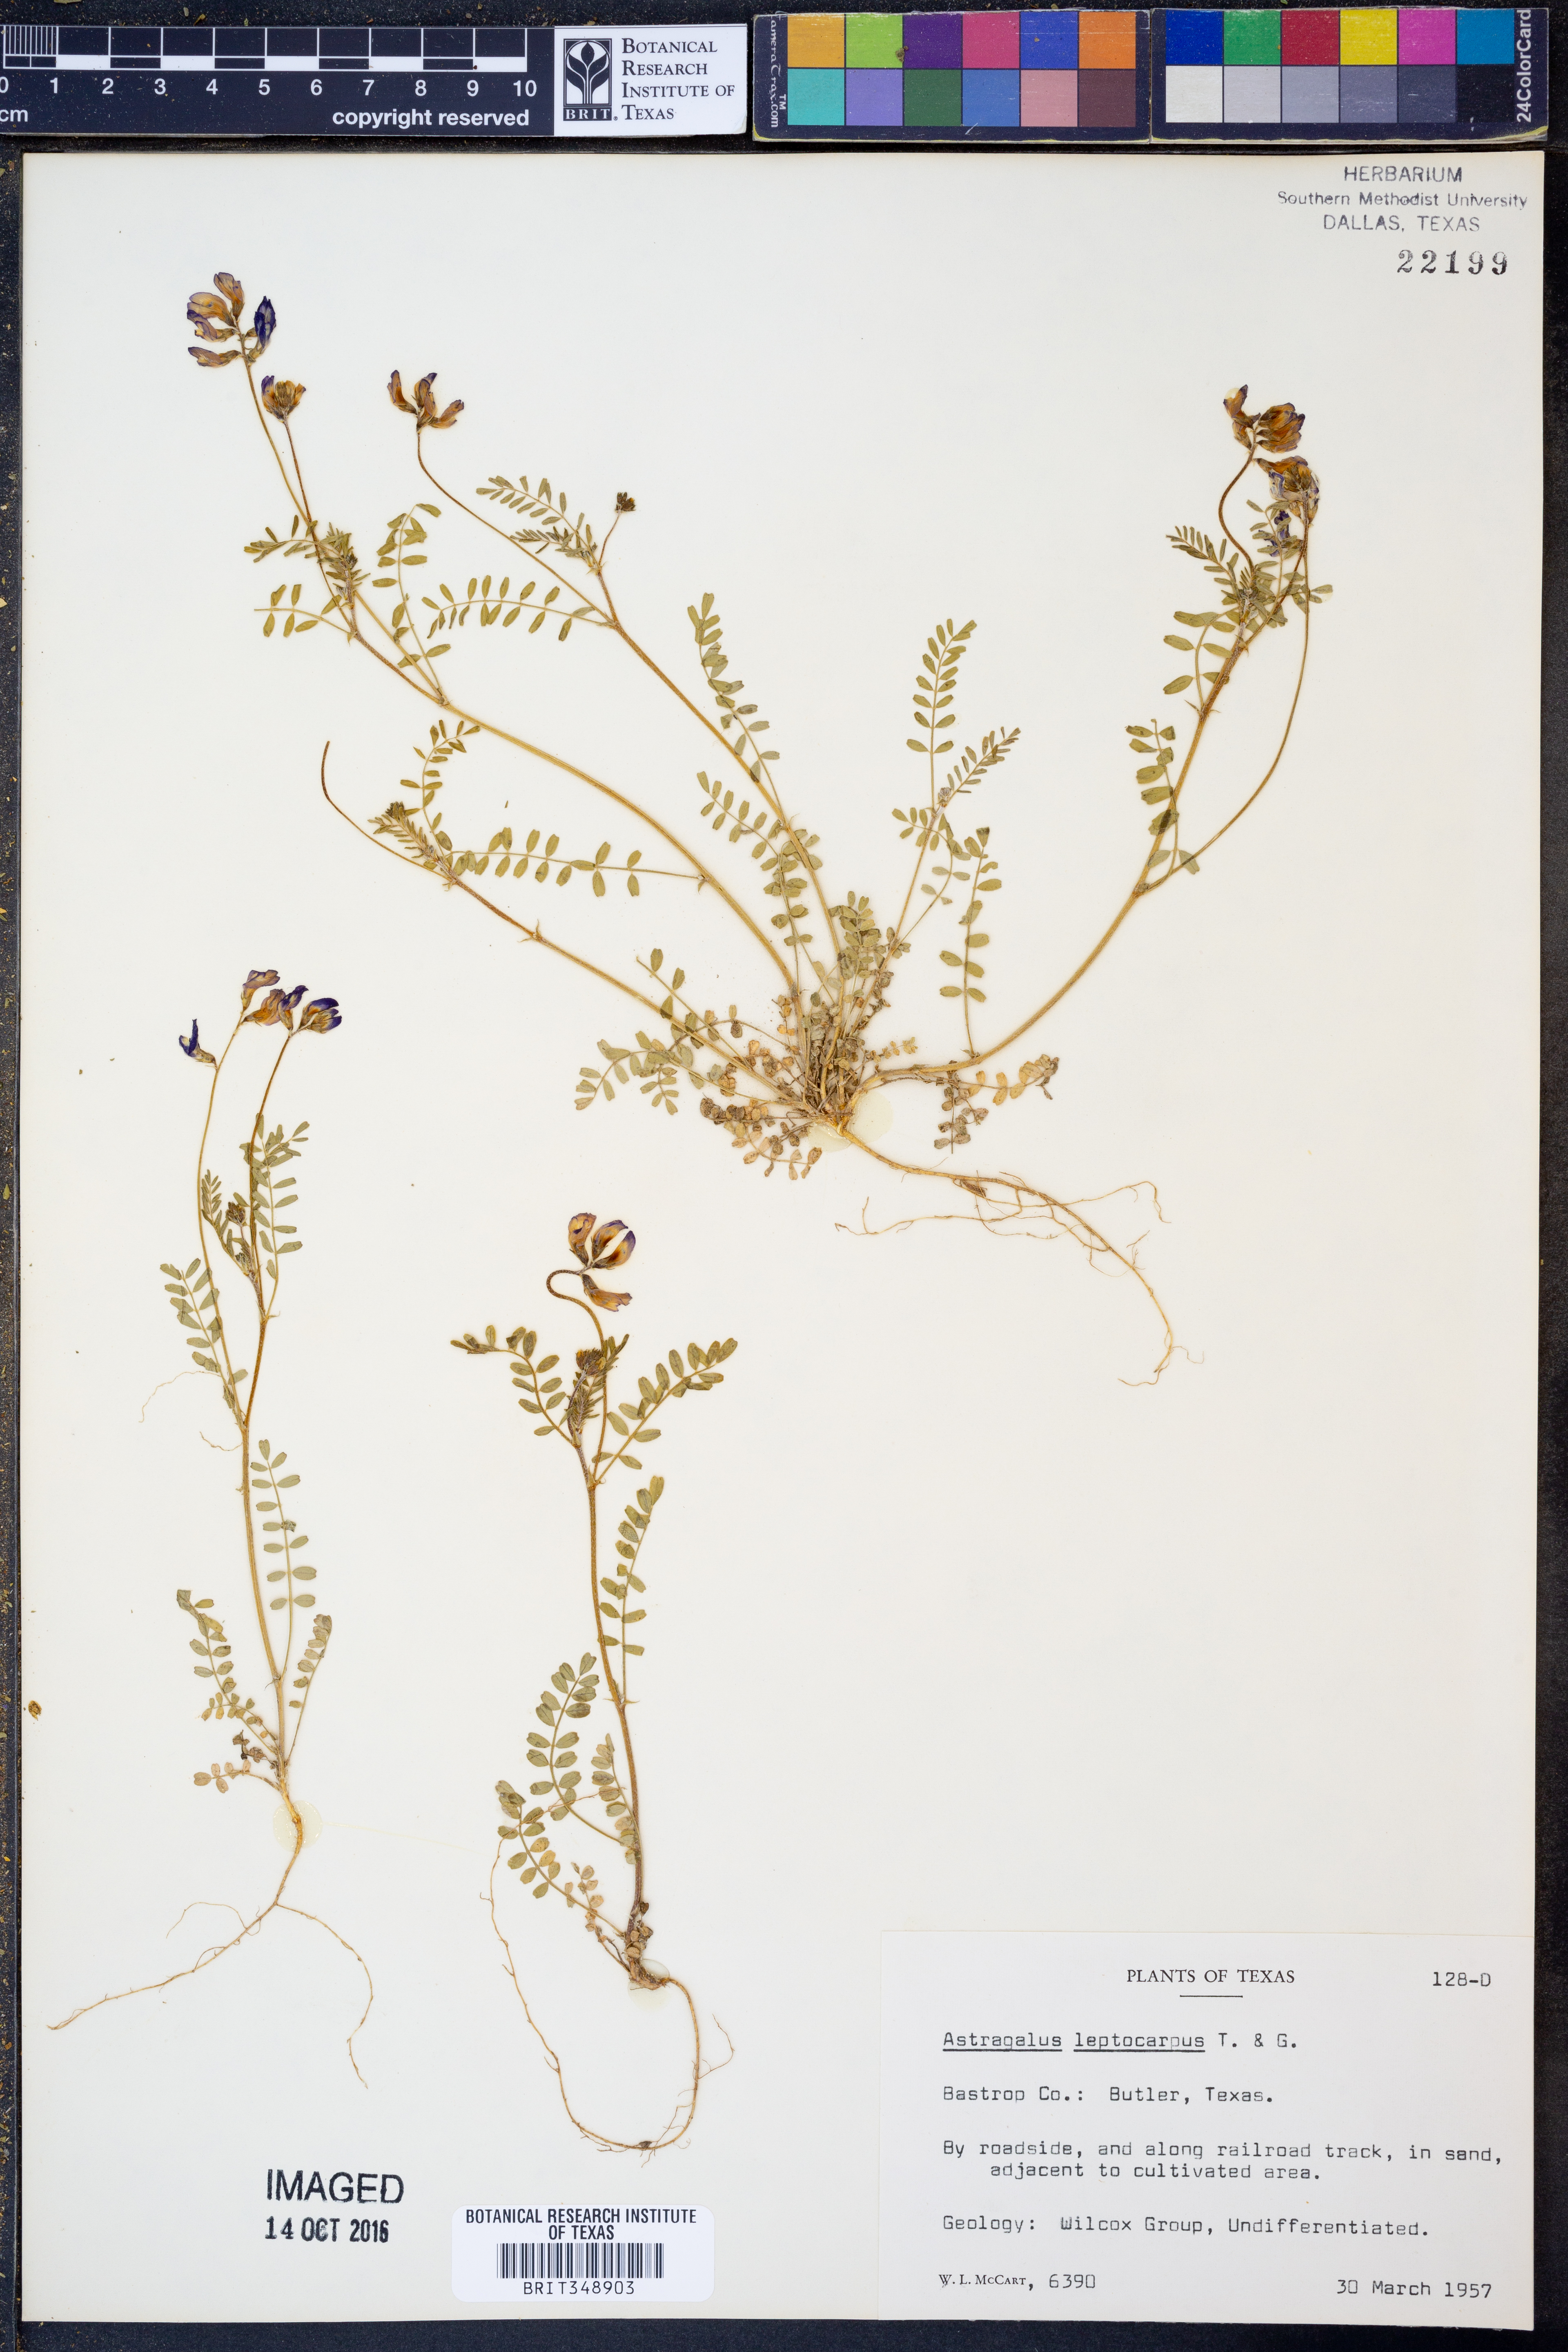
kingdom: Plantae
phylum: Tracheophyta
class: Magnoliopsida
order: Fabales
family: Fabaceae
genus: Astragalus
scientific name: Astragalus leptocarpus
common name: Bodkin milk-vetch
